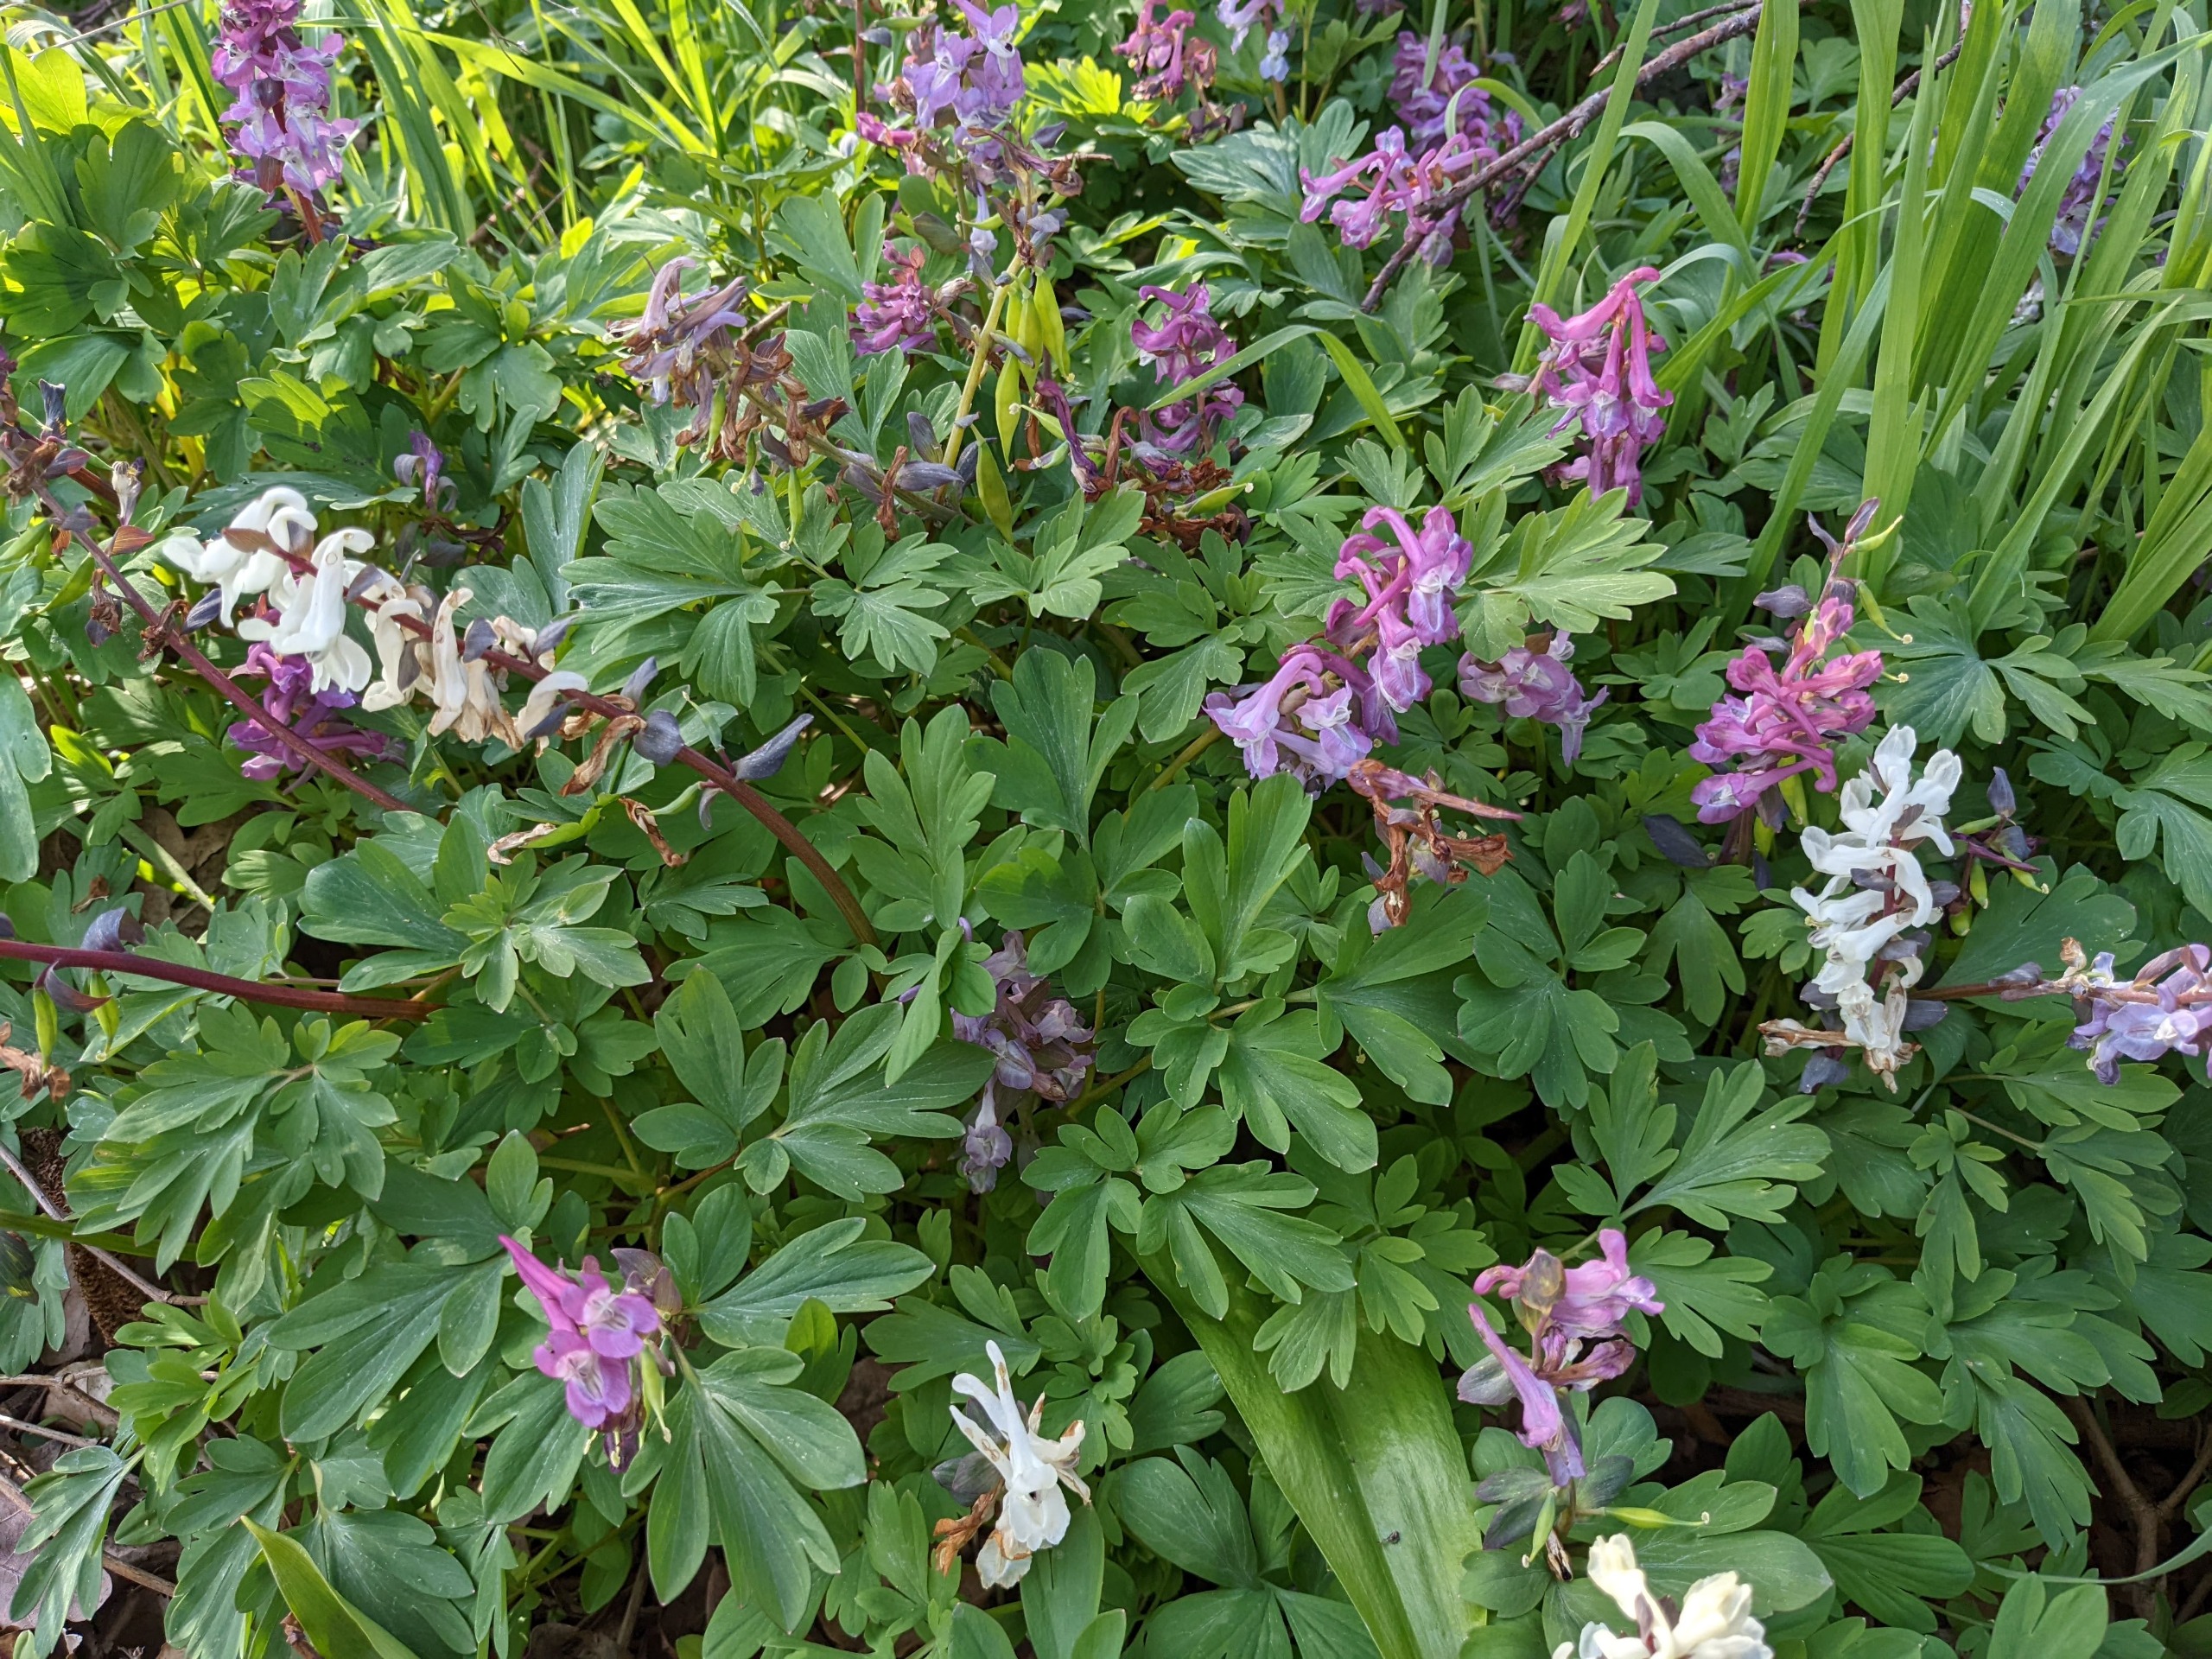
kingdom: Plantae
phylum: Tracheophyta
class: Magnoliopsida
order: Ranunculales
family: Papaveraceae
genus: Corydalis
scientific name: Corydalis cava
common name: Hulrodet lærkespore
